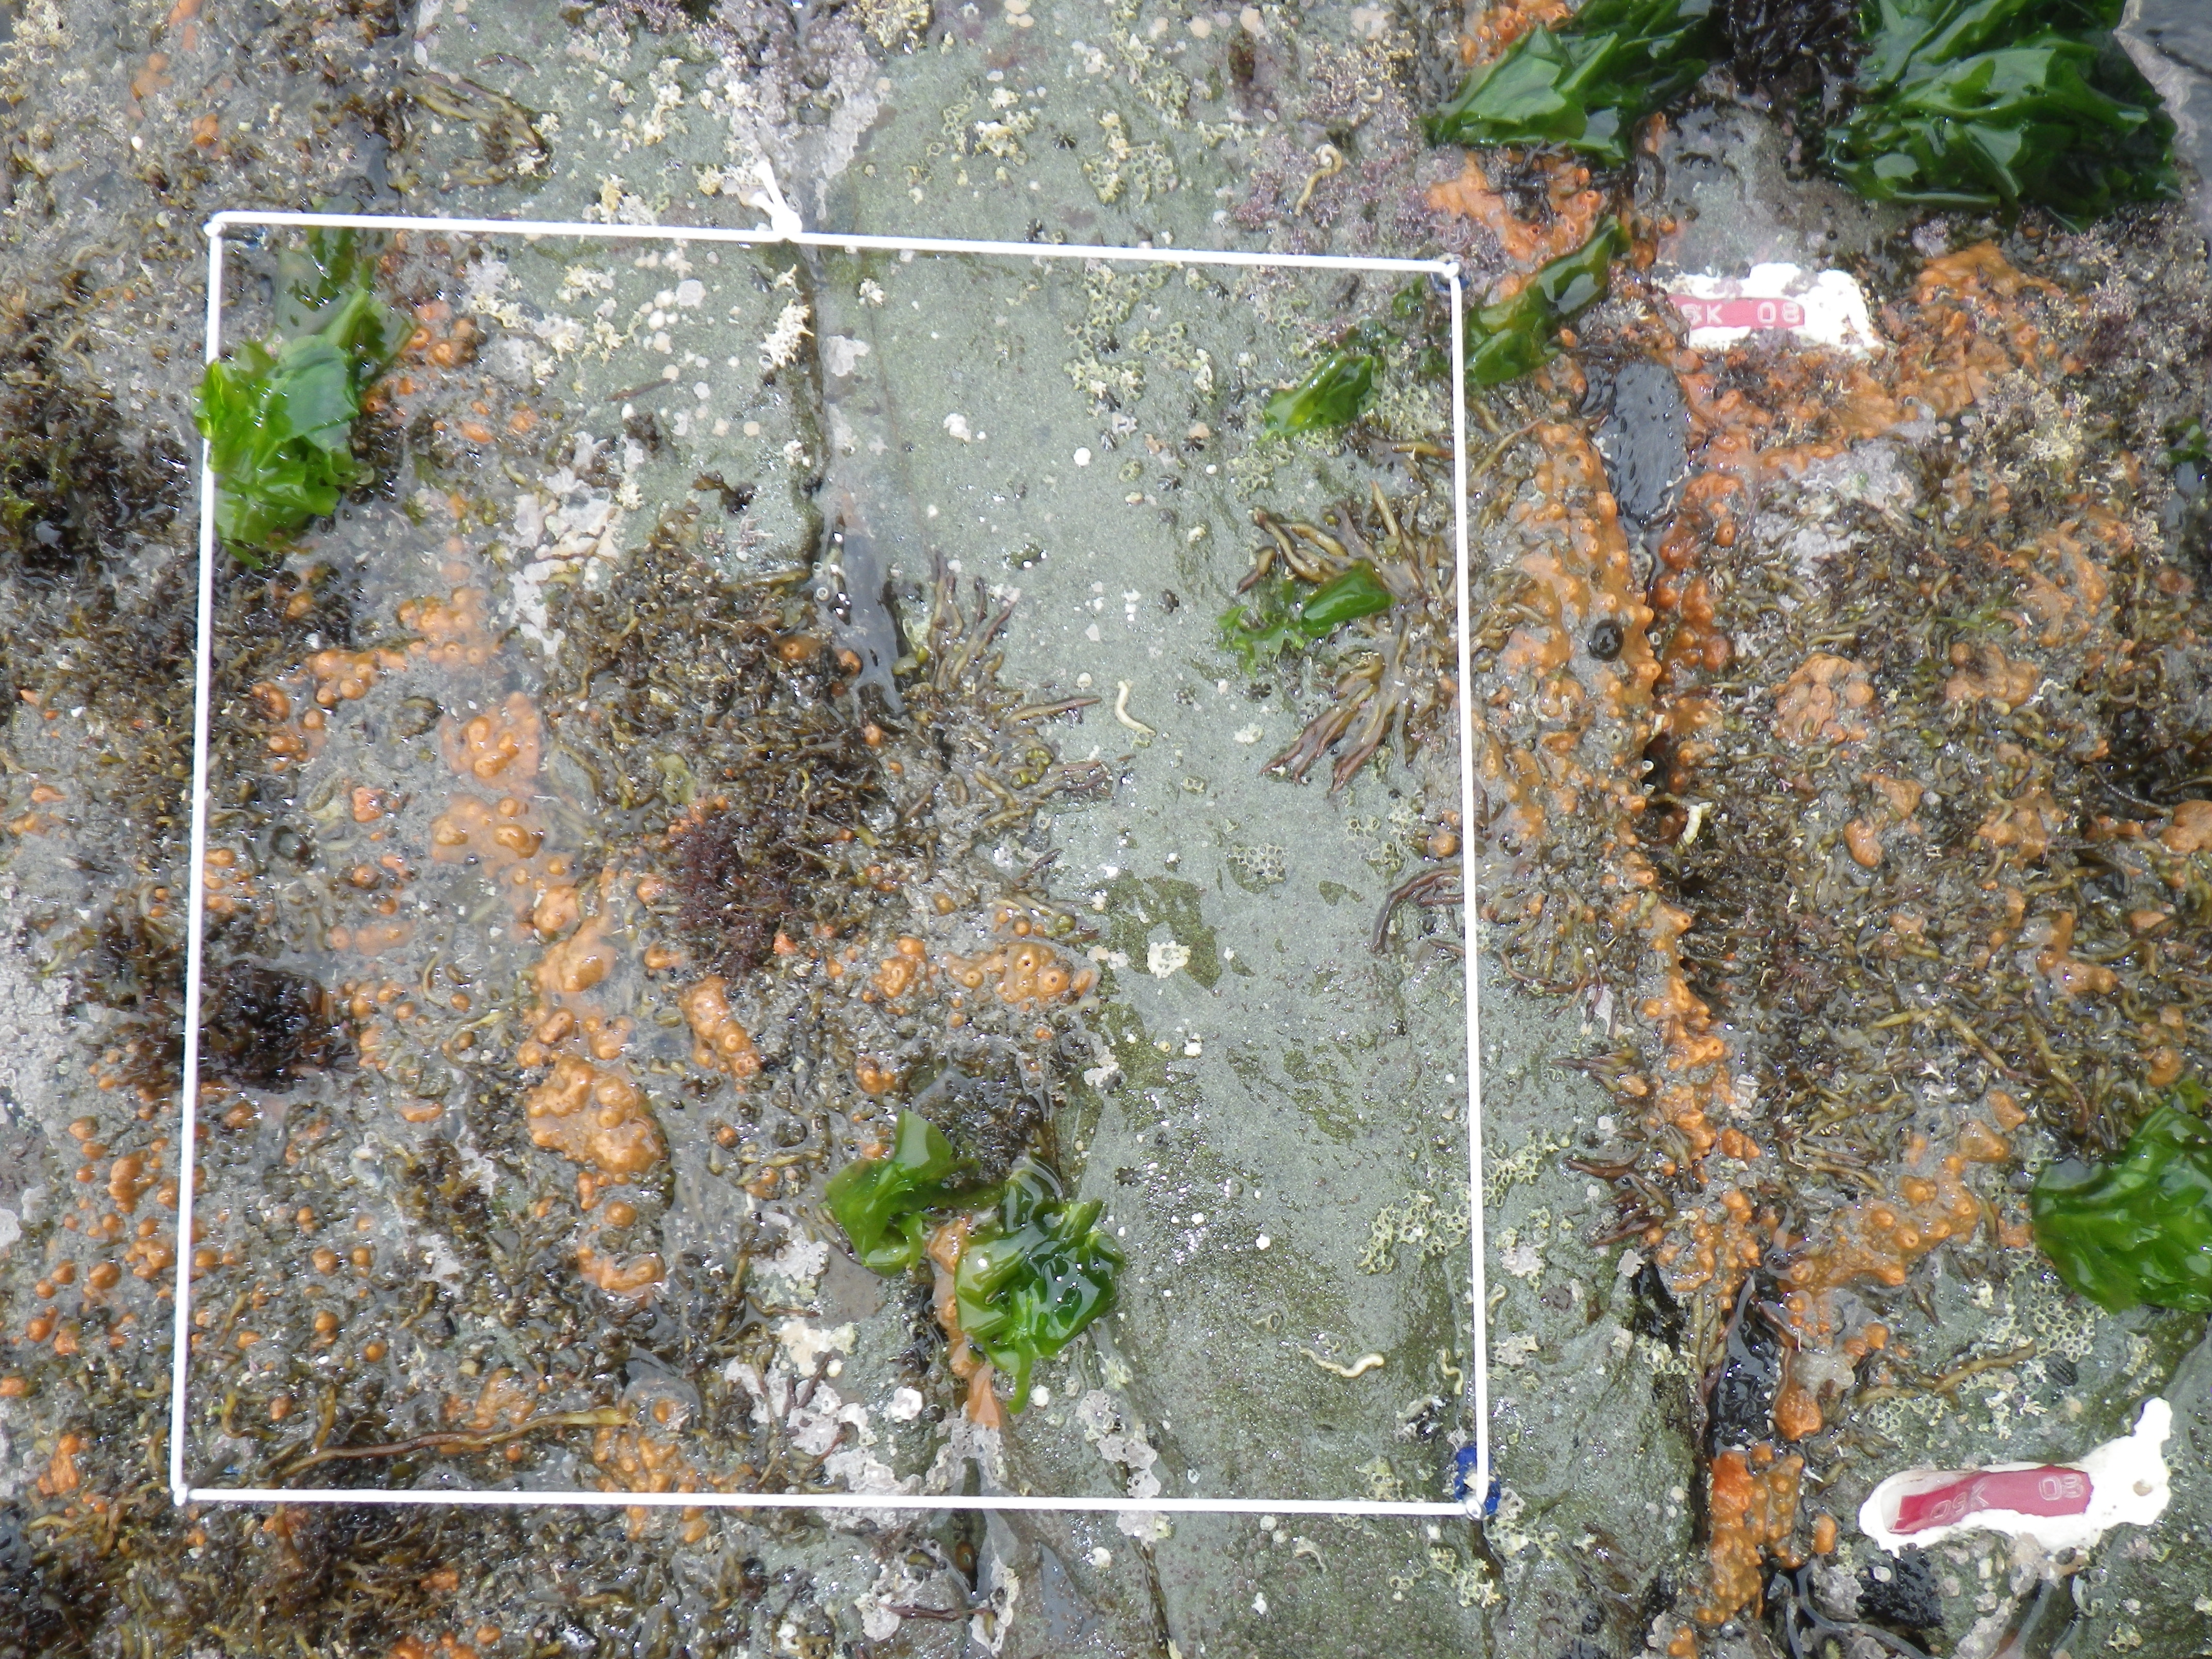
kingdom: Animalia
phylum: Arthropoda
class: Maxillopoda
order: Sessilia
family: Chthamalidae
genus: Chthamalus
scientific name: Chthamalus challengeri
